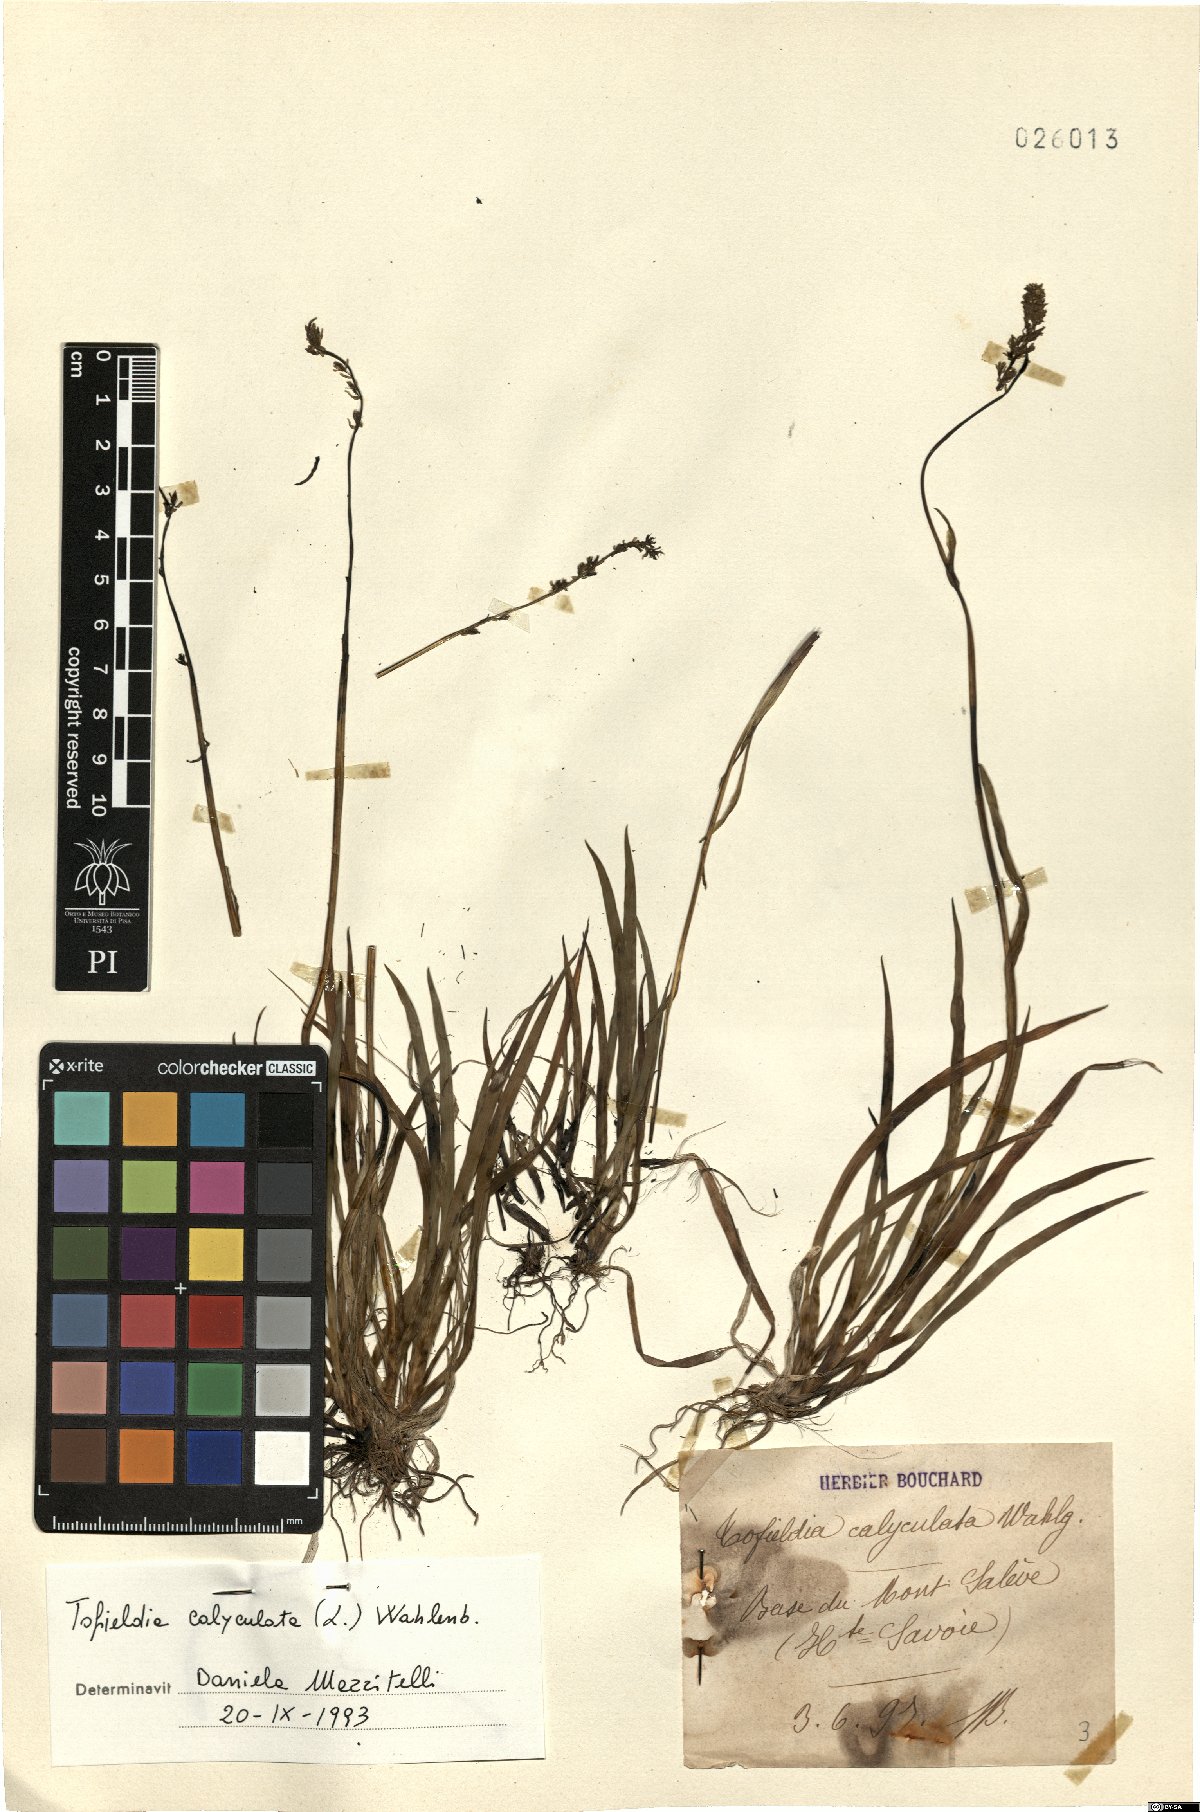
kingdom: Plantae
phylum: Tracheophyta
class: Liliopsida
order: Alismatales
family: Tofieldiaceae
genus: Tofieldia
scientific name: Tofieldia calyculata
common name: German-asphodel
